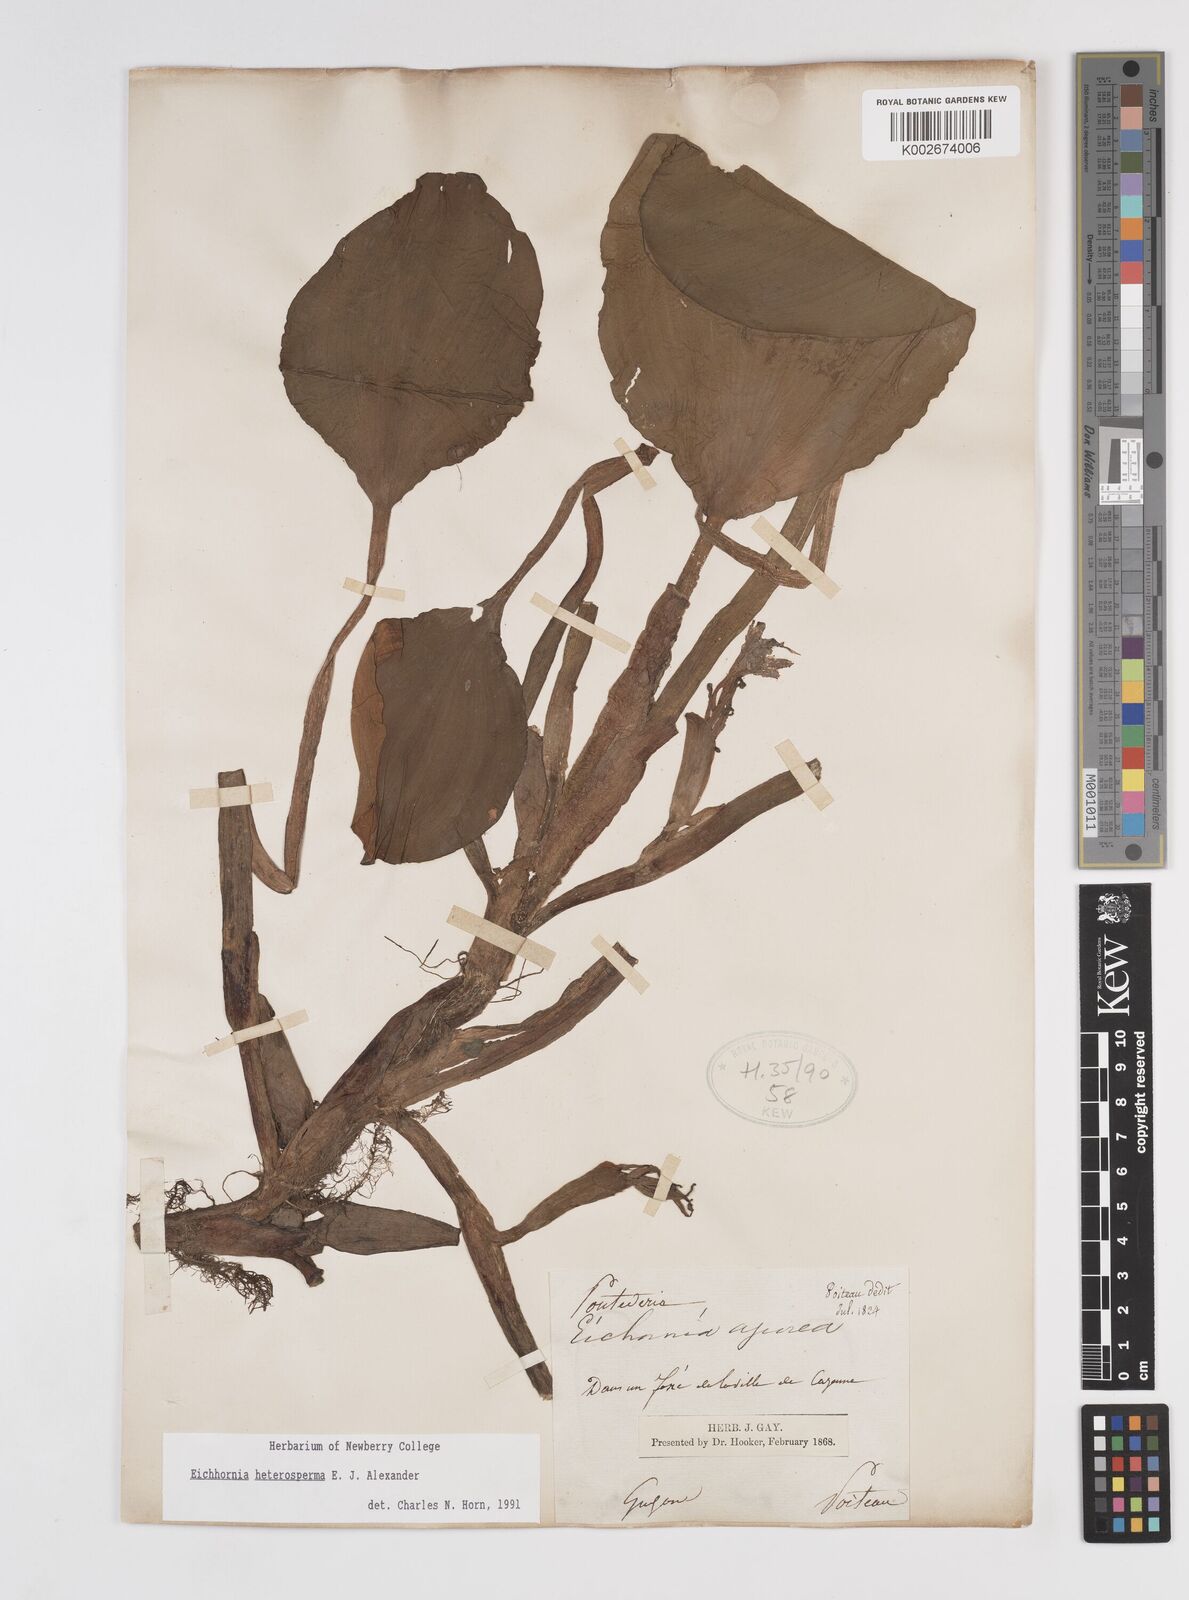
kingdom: Plantae
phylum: Tracheophyta
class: Liliopsida
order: Commelinales
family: Pontederiaceae
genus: Pontederia
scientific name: Pontederia heterosperma
